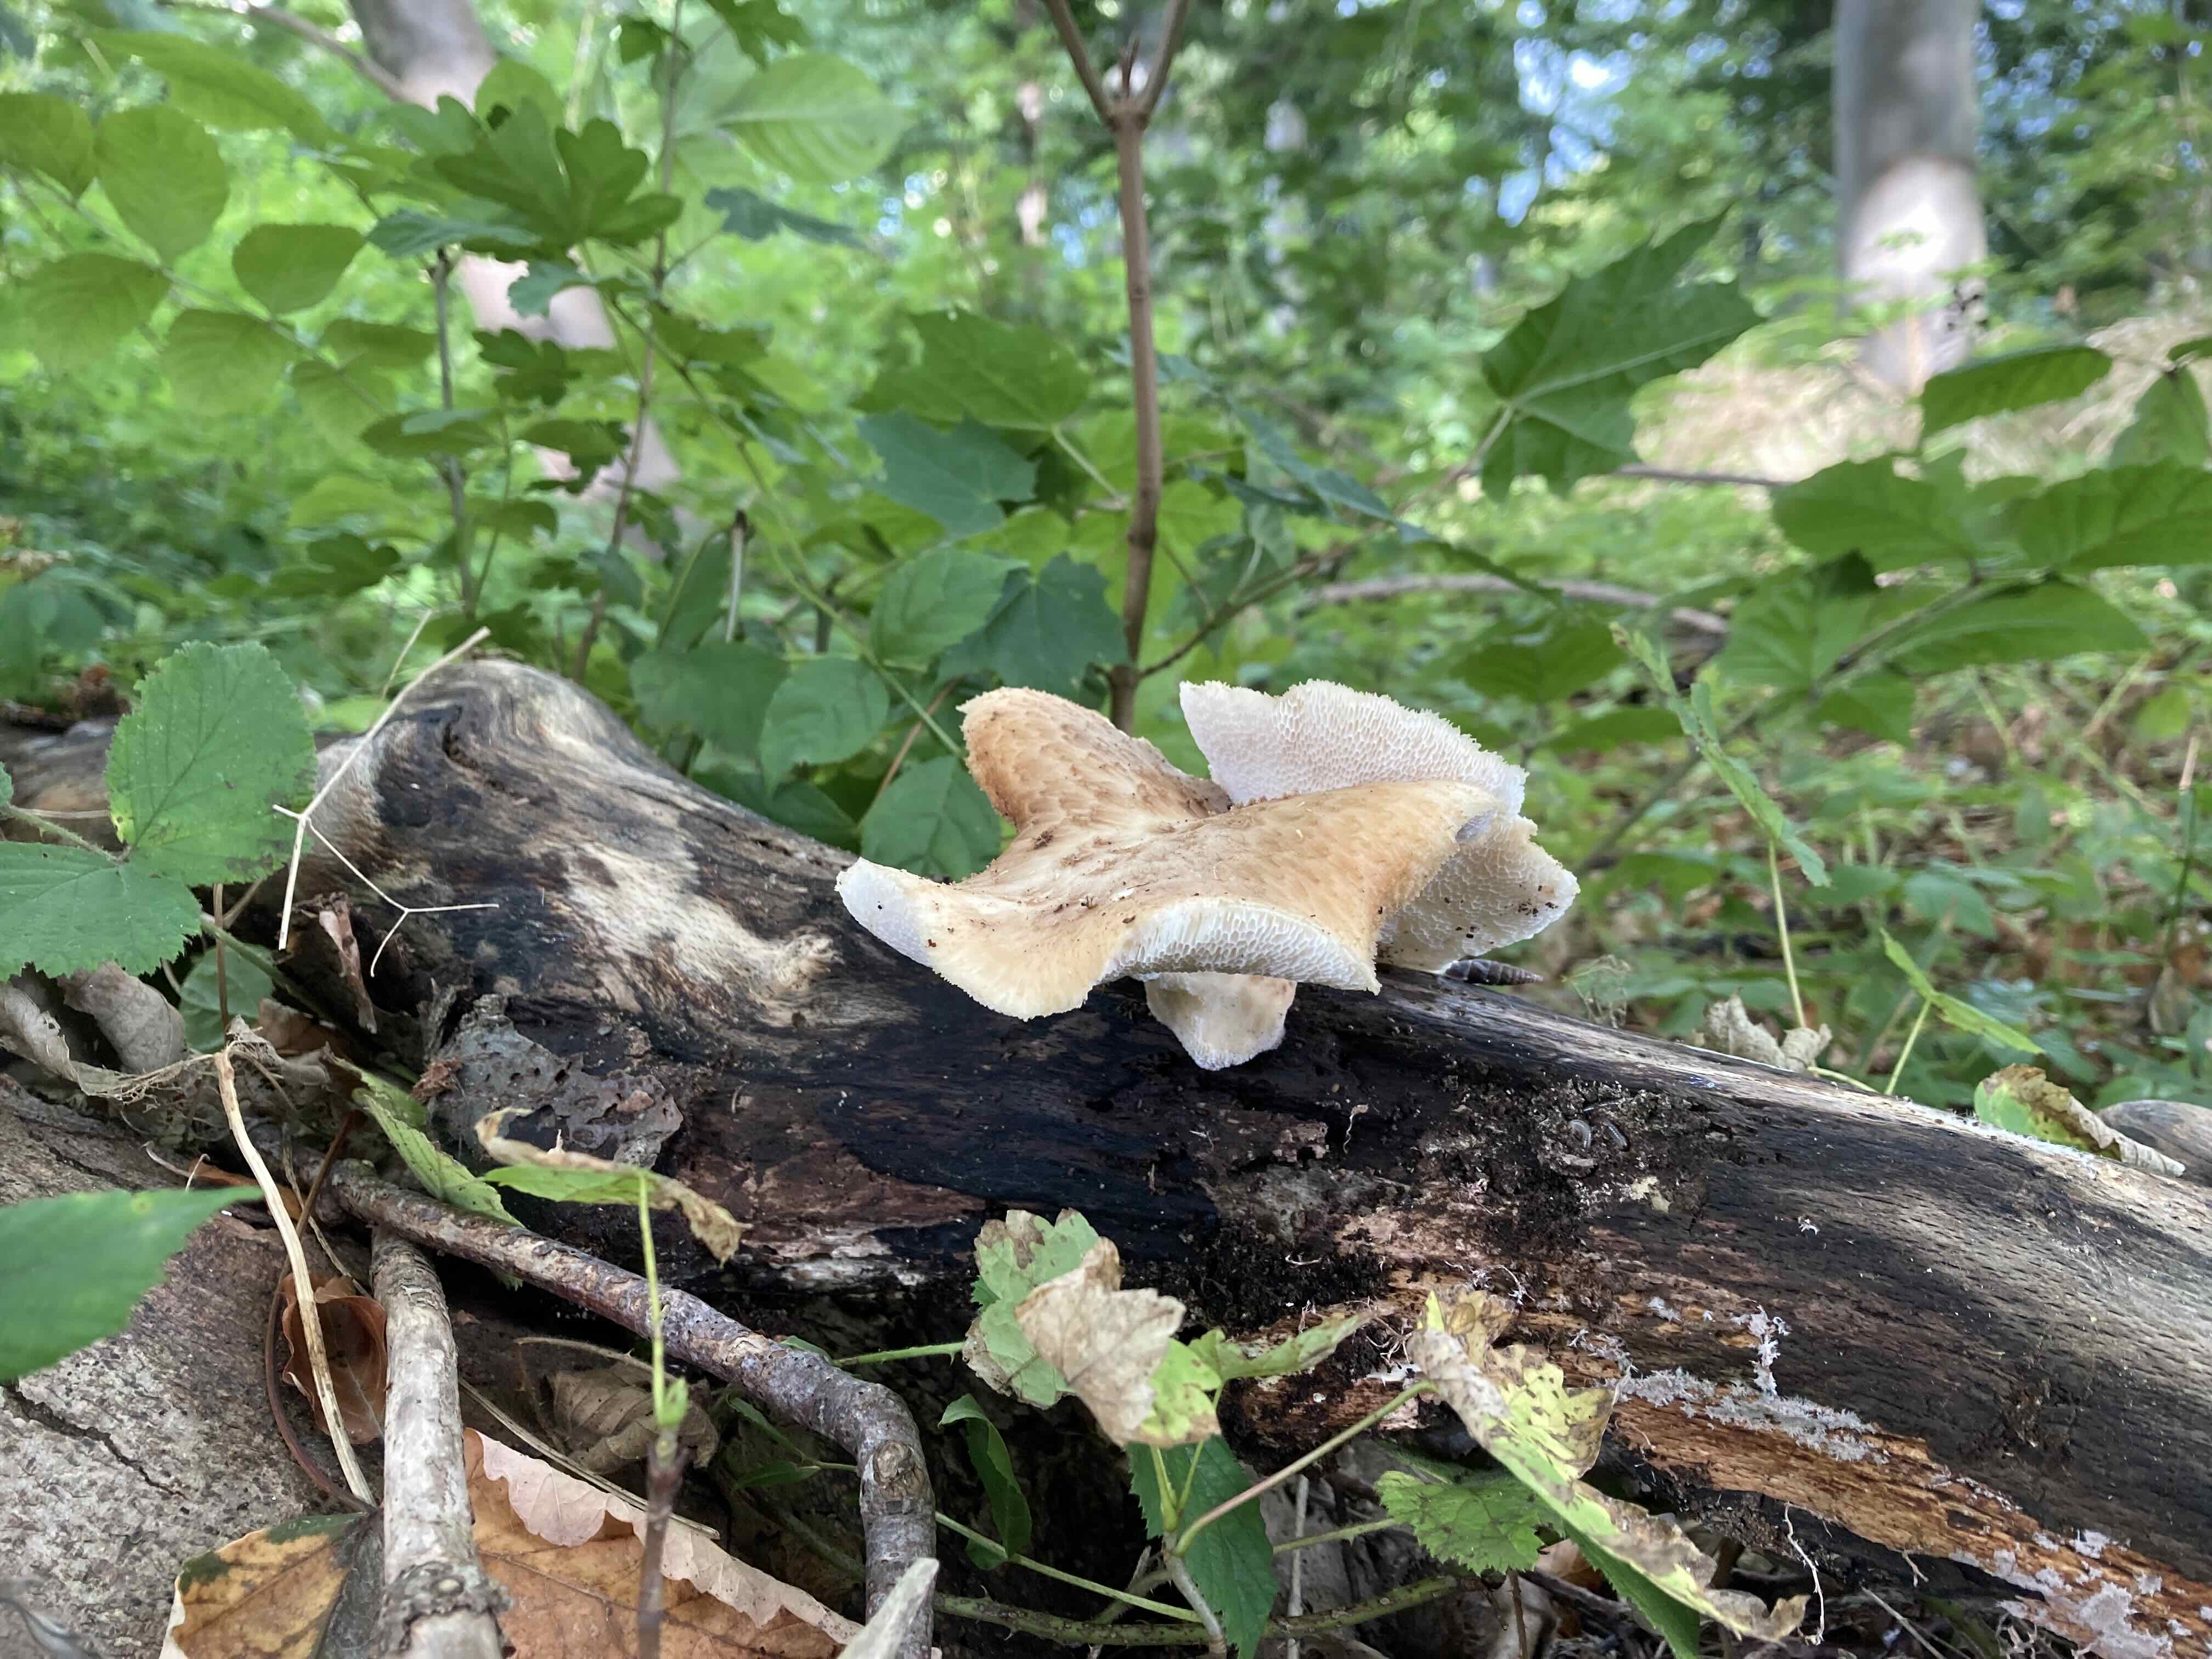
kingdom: Fungi
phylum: Basidiomycota
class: Agaricomycetes
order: Polyporales
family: Polyporaceae
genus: Polyporus
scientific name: Polyporus tuberaster
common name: knoldet stilkporesvamp
